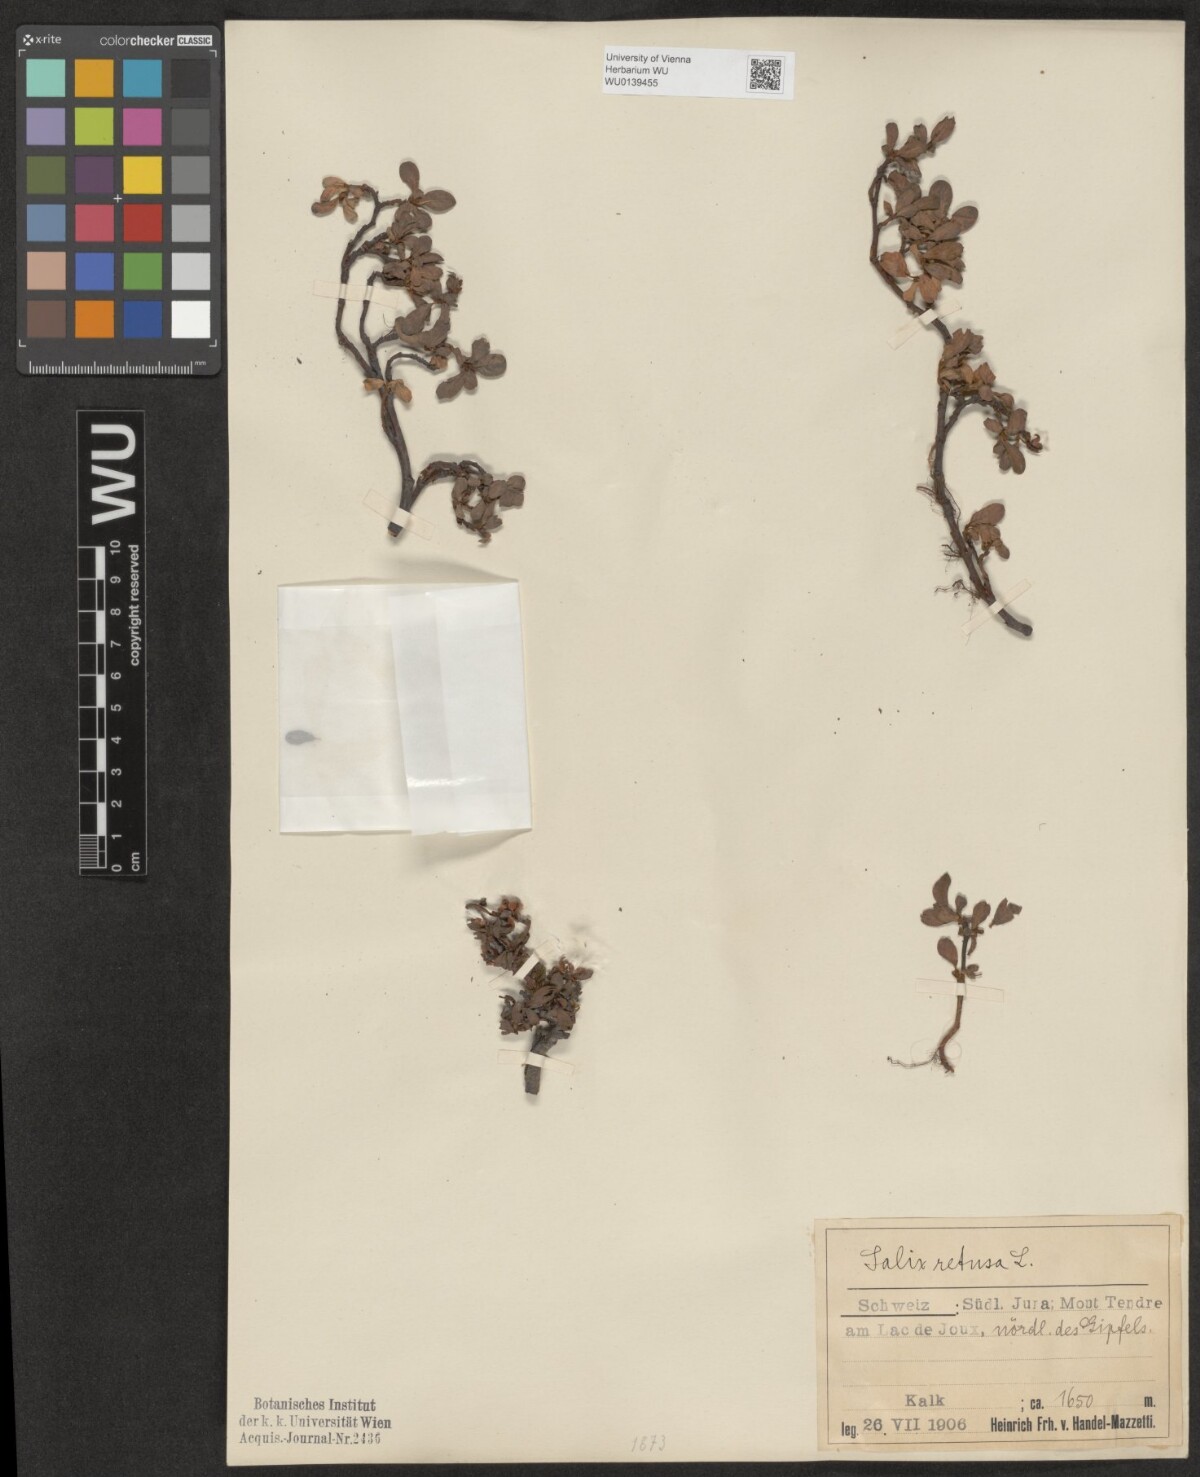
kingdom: Plantae
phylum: Tracheophyta
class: Magnoliopsida
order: Malpighiales
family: Salicaceae
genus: Salix
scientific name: Salix retusa
